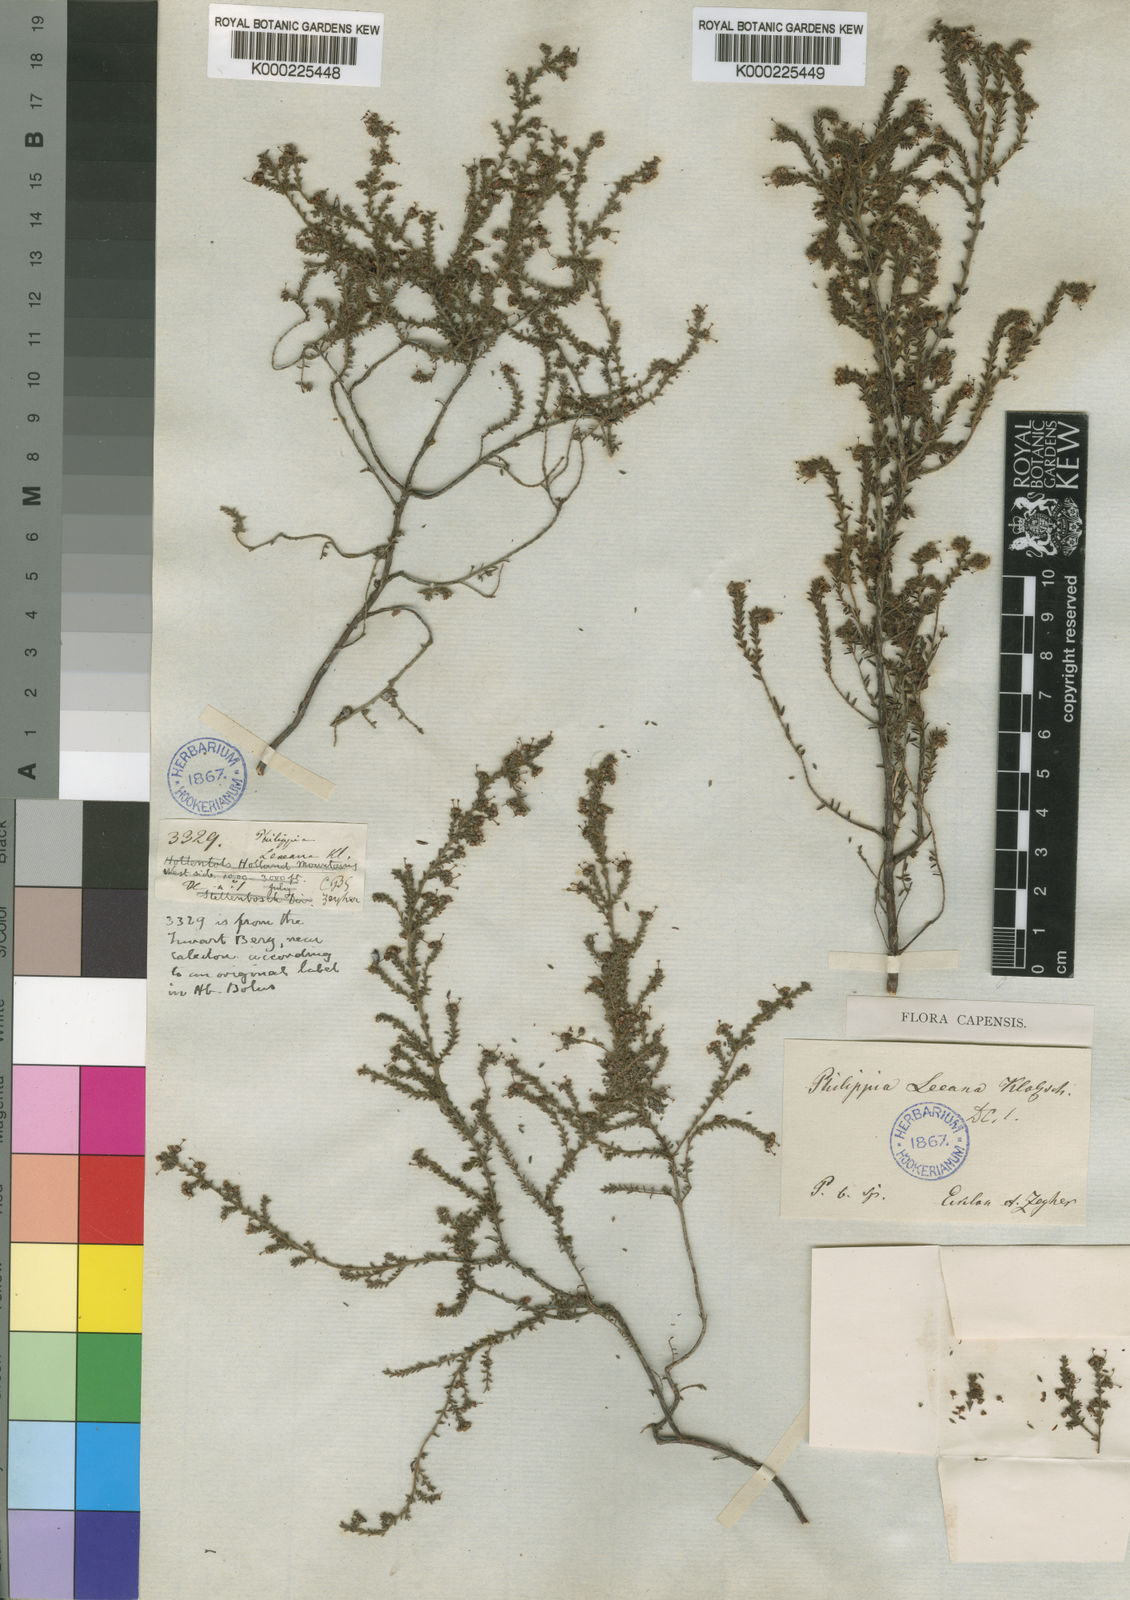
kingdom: Plantae
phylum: Tracheophyta
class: Magnoliopsida
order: Ericales
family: Ericaceae
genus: Erica
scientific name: Erica exleeana
